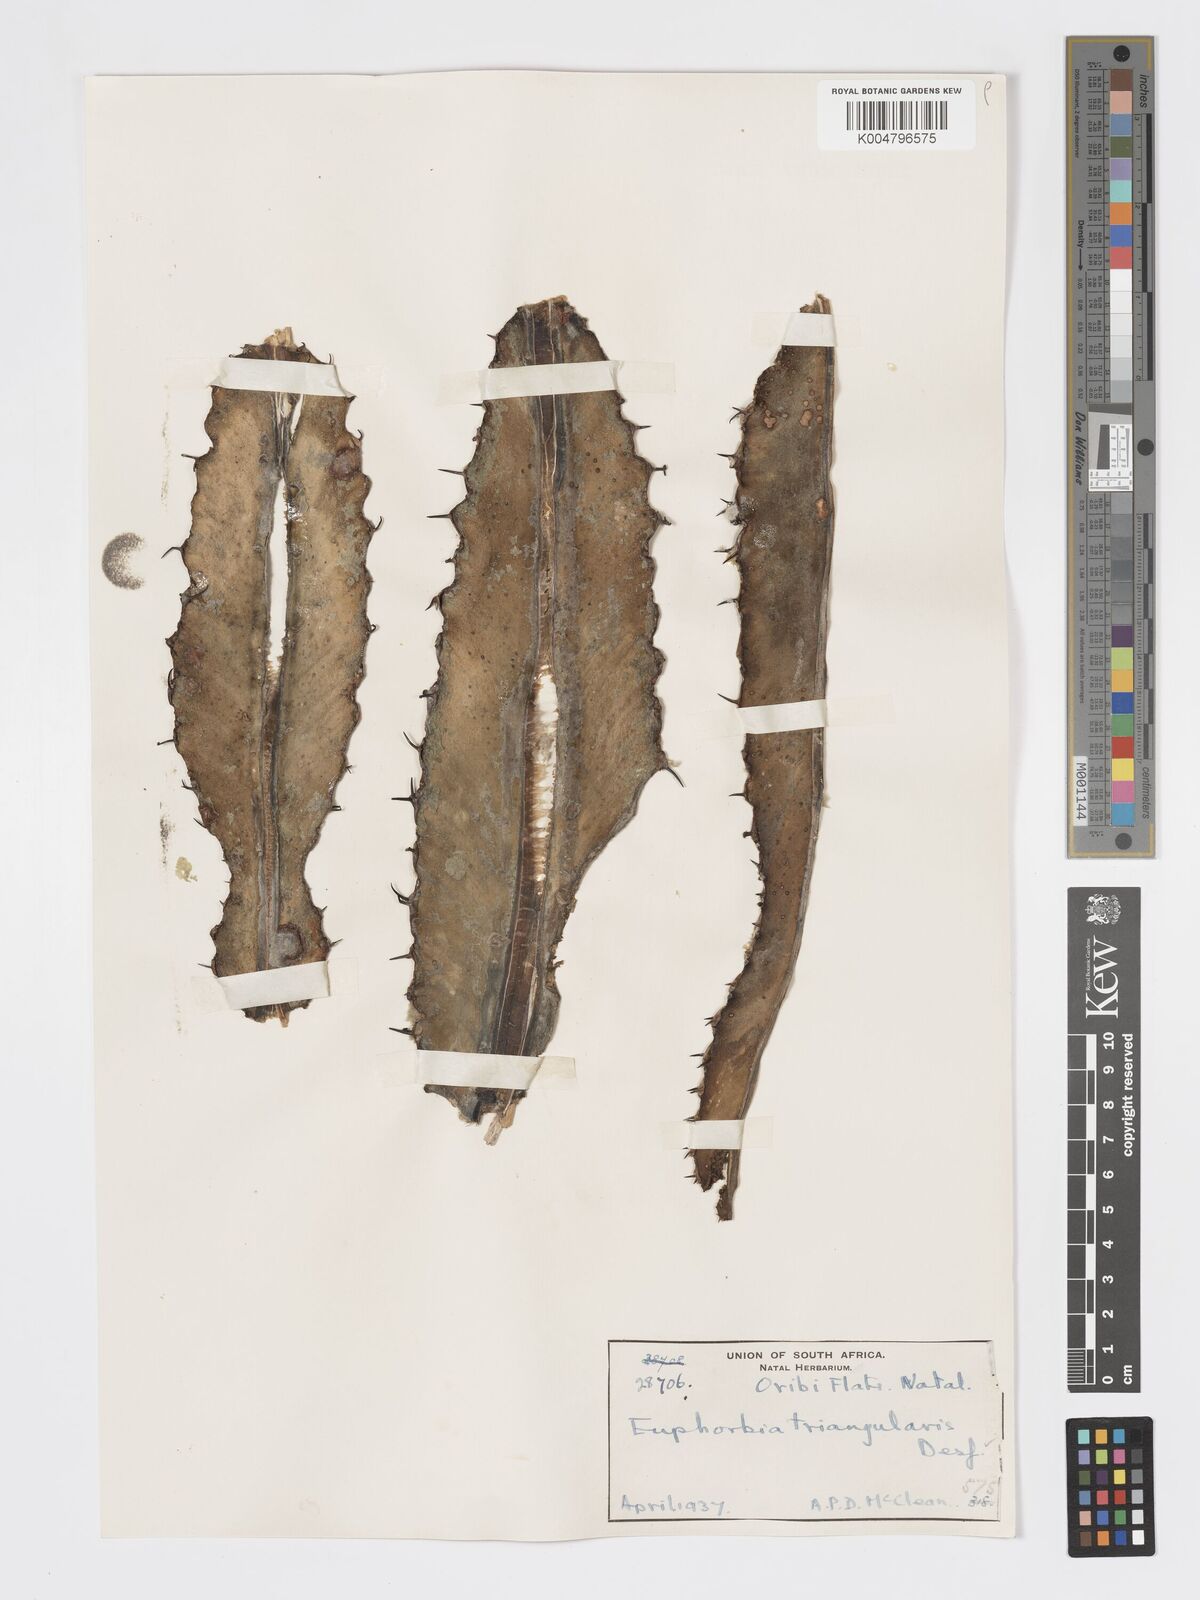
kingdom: Plantae
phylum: Tracheophyta
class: Magnoliopsida
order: Malpighiales
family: Euphorbiaceae
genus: Euphorbia
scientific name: Euphorbia triangularis
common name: Chandelier tree
